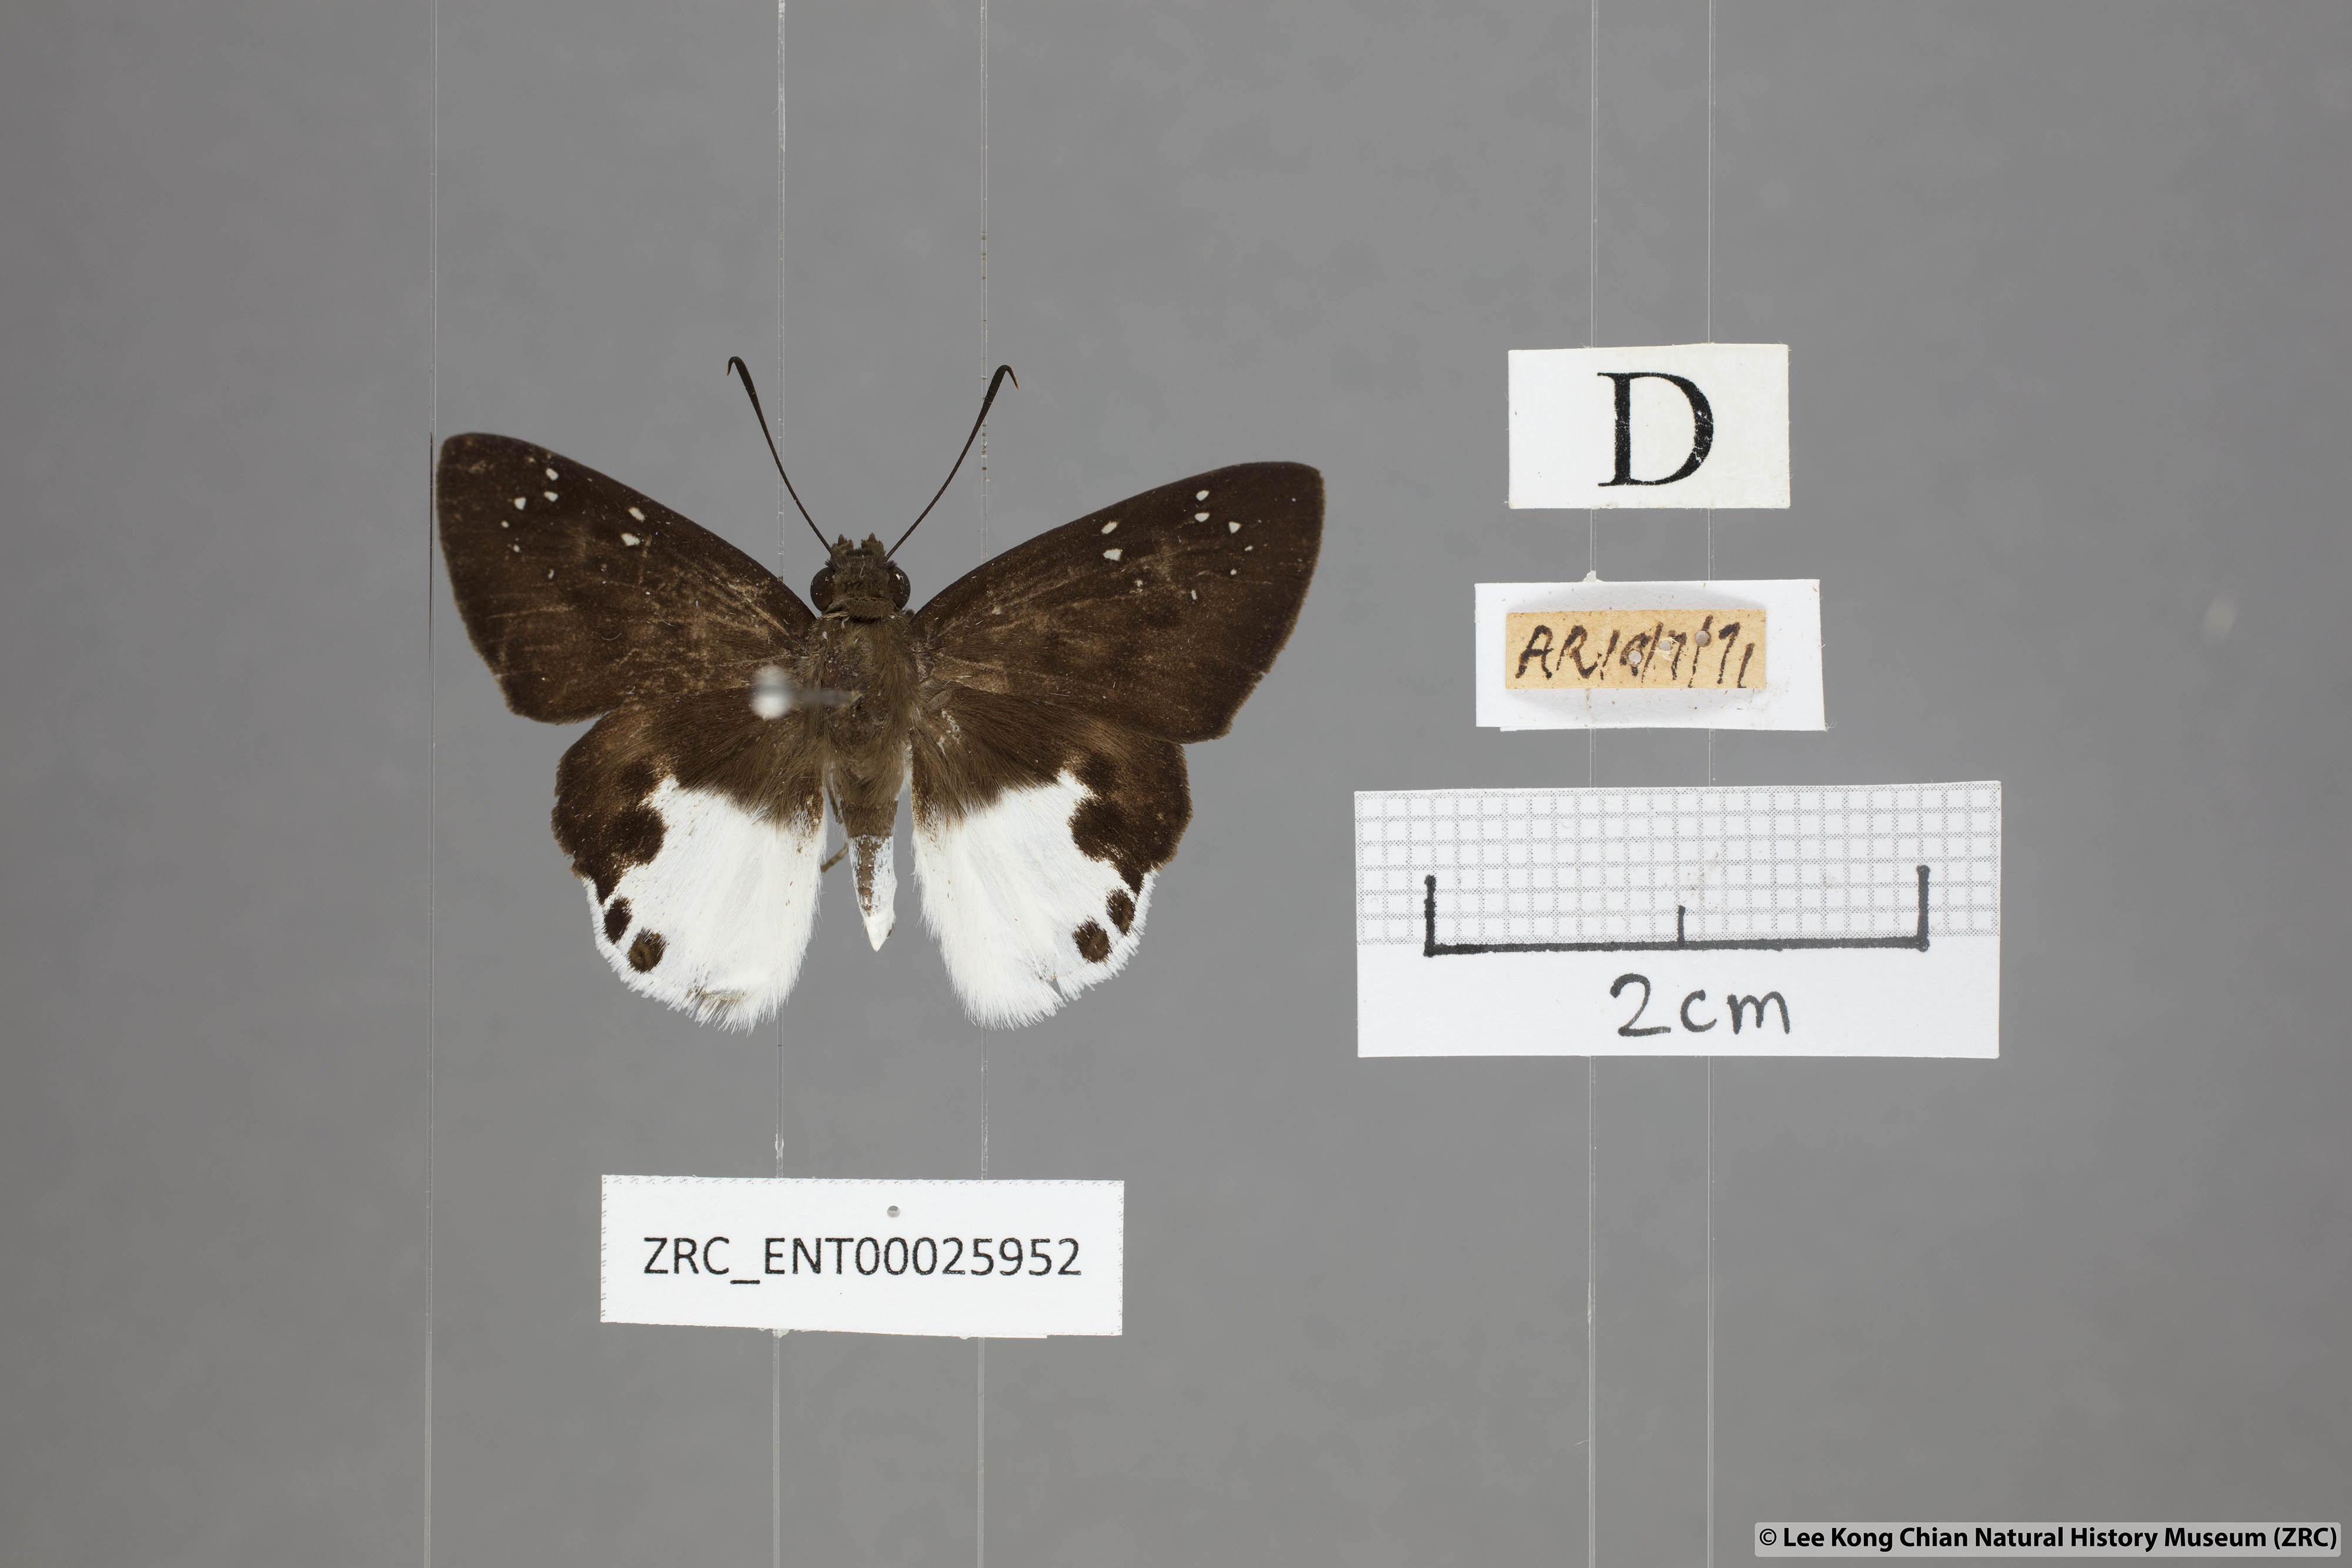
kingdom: Animalia
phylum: Arthropoda
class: Insecta
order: Lepidoptera
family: Hesperiidae
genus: Tagiades
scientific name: Tagiades calligana
